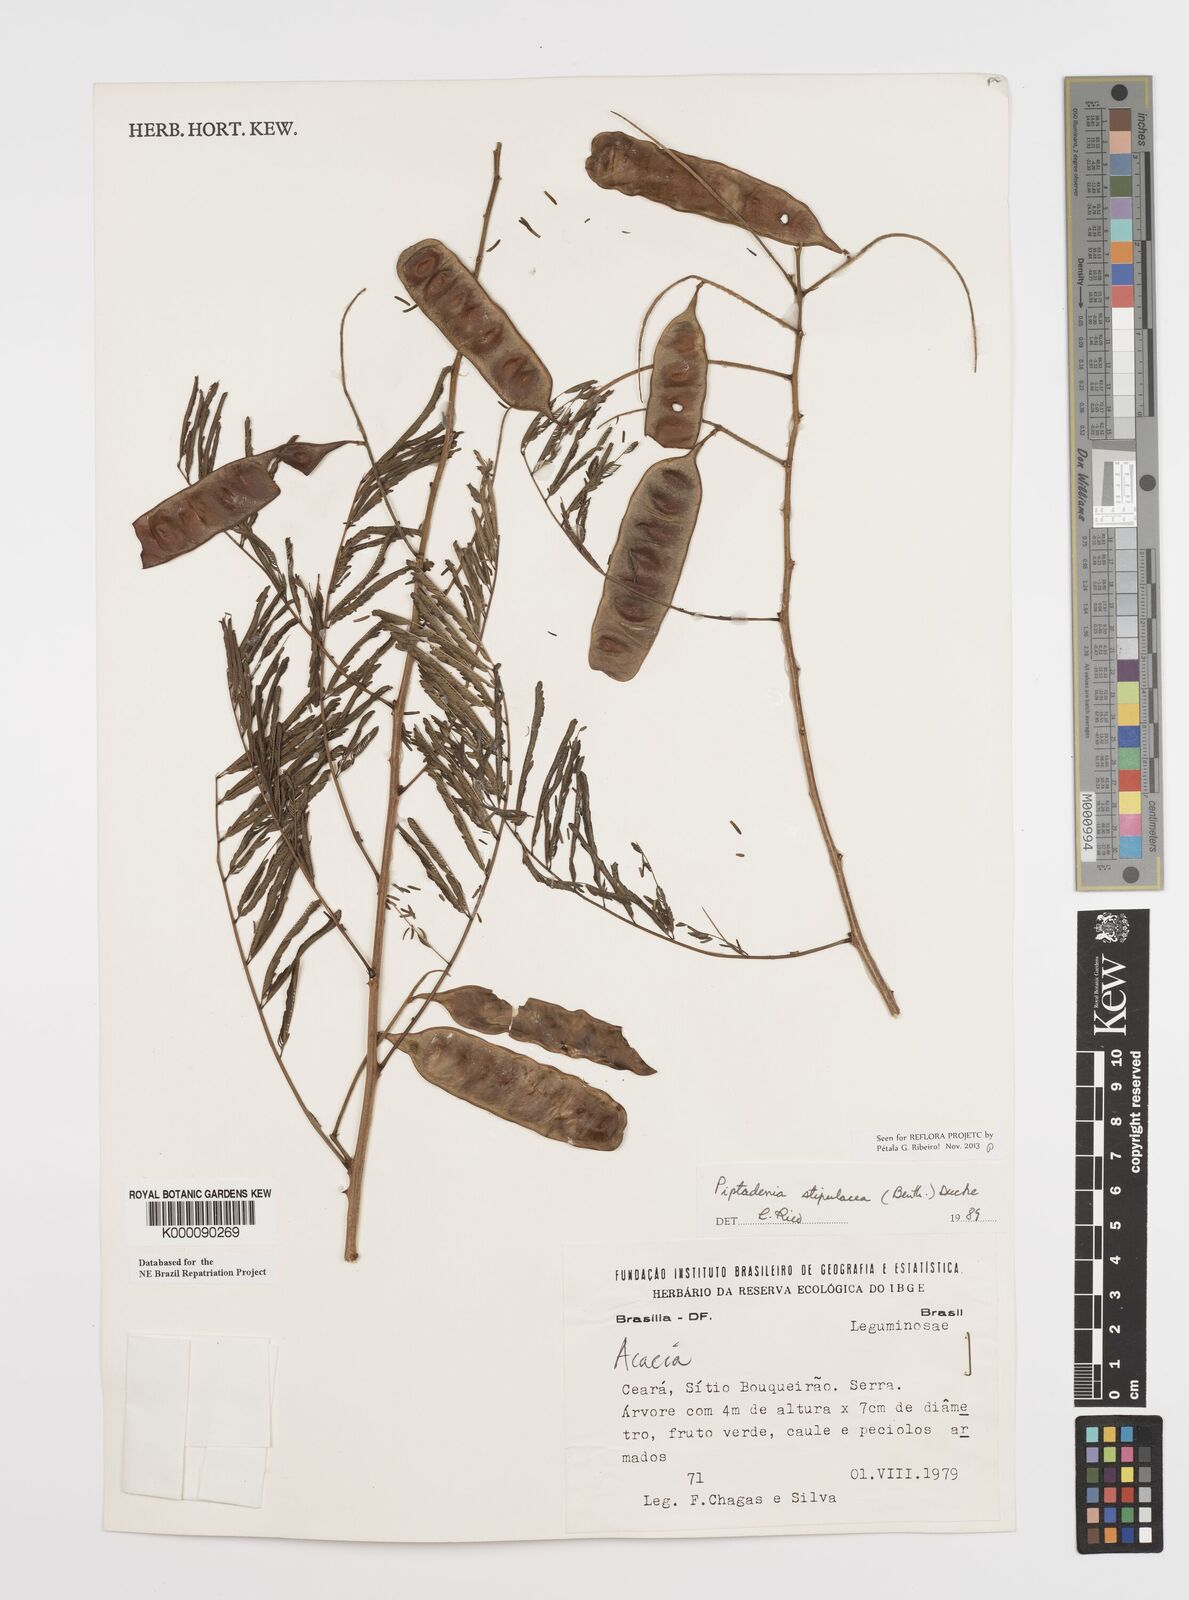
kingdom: Plantae
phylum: Tracheophyta
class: Magnoliopsida
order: Fabales
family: Fabaceae
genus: Piptadenia
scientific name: Piptadenia retusa
